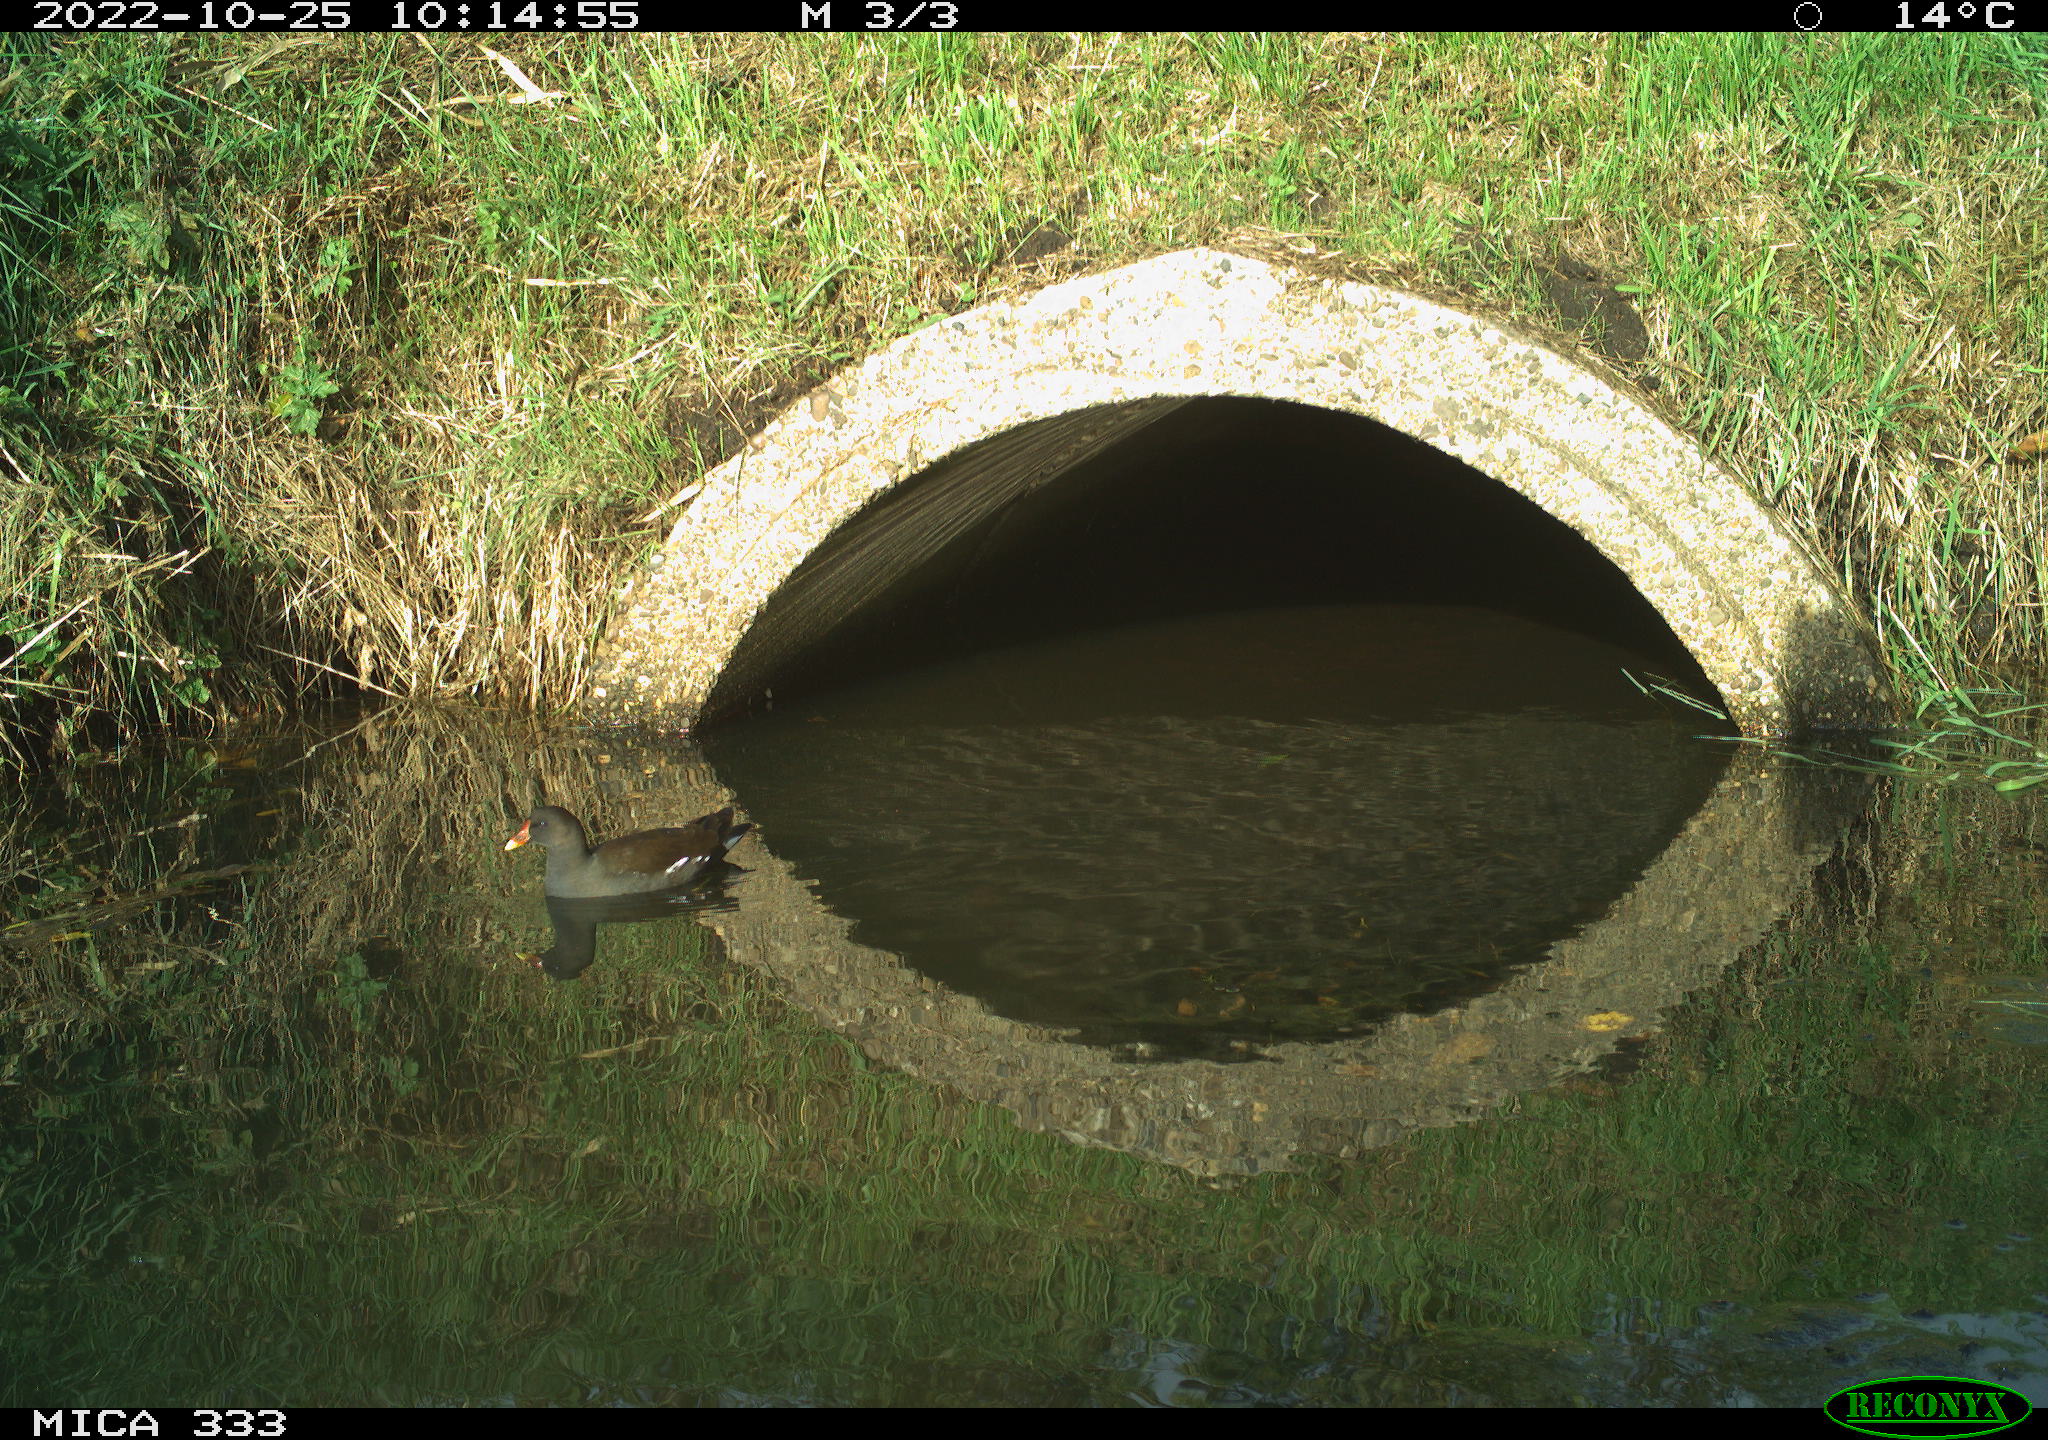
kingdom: Animalia
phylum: Chordata
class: Aves
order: Gruiformes
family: Rallidae
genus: Gallinula
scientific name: Gallinula chloropus
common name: Common moorhen
